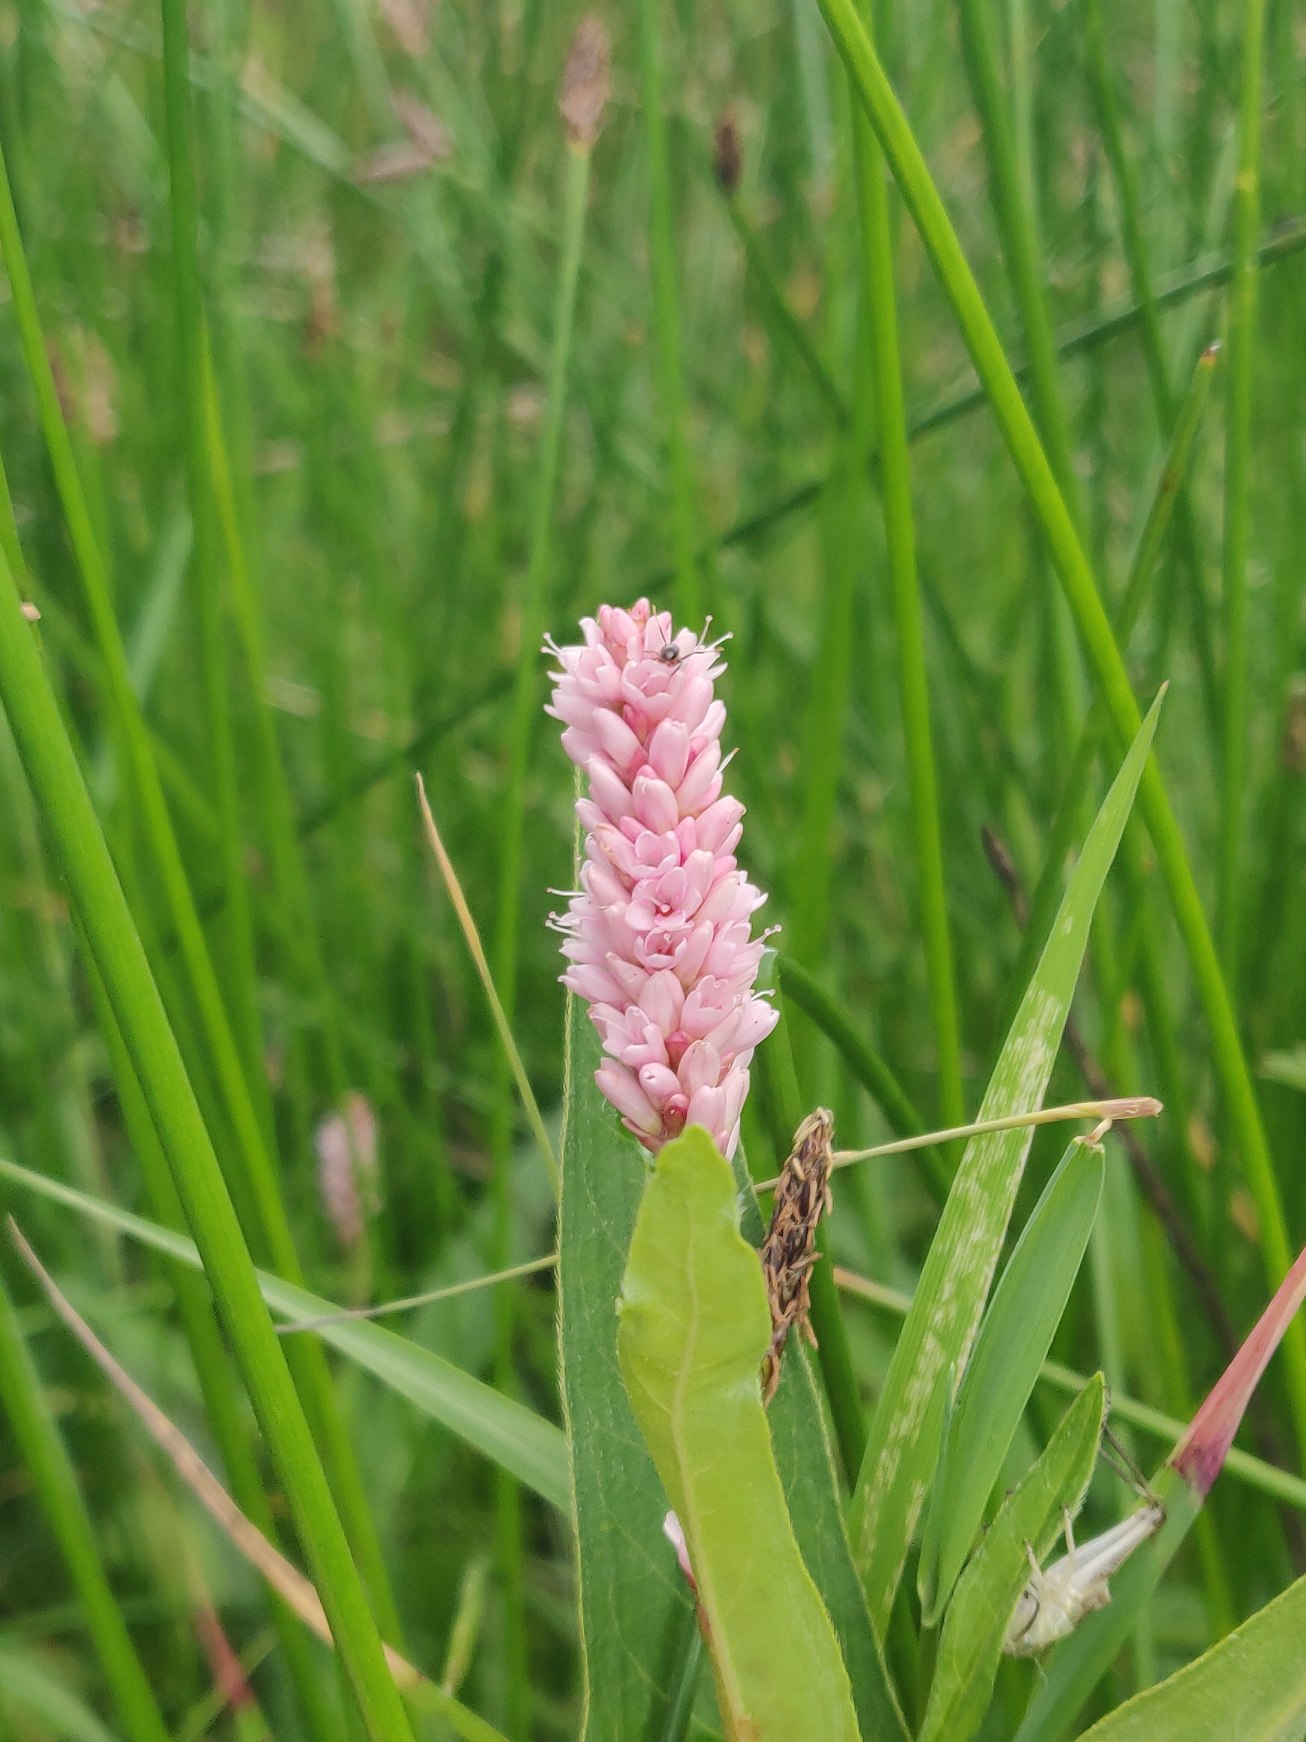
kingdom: Plantae
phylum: Tracheophyta
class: Magnoliopsida
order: Caryophyllales
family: Polygonaceae
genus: Persicaria
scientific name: Persicaria amphibia
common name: Vand-pileurt
